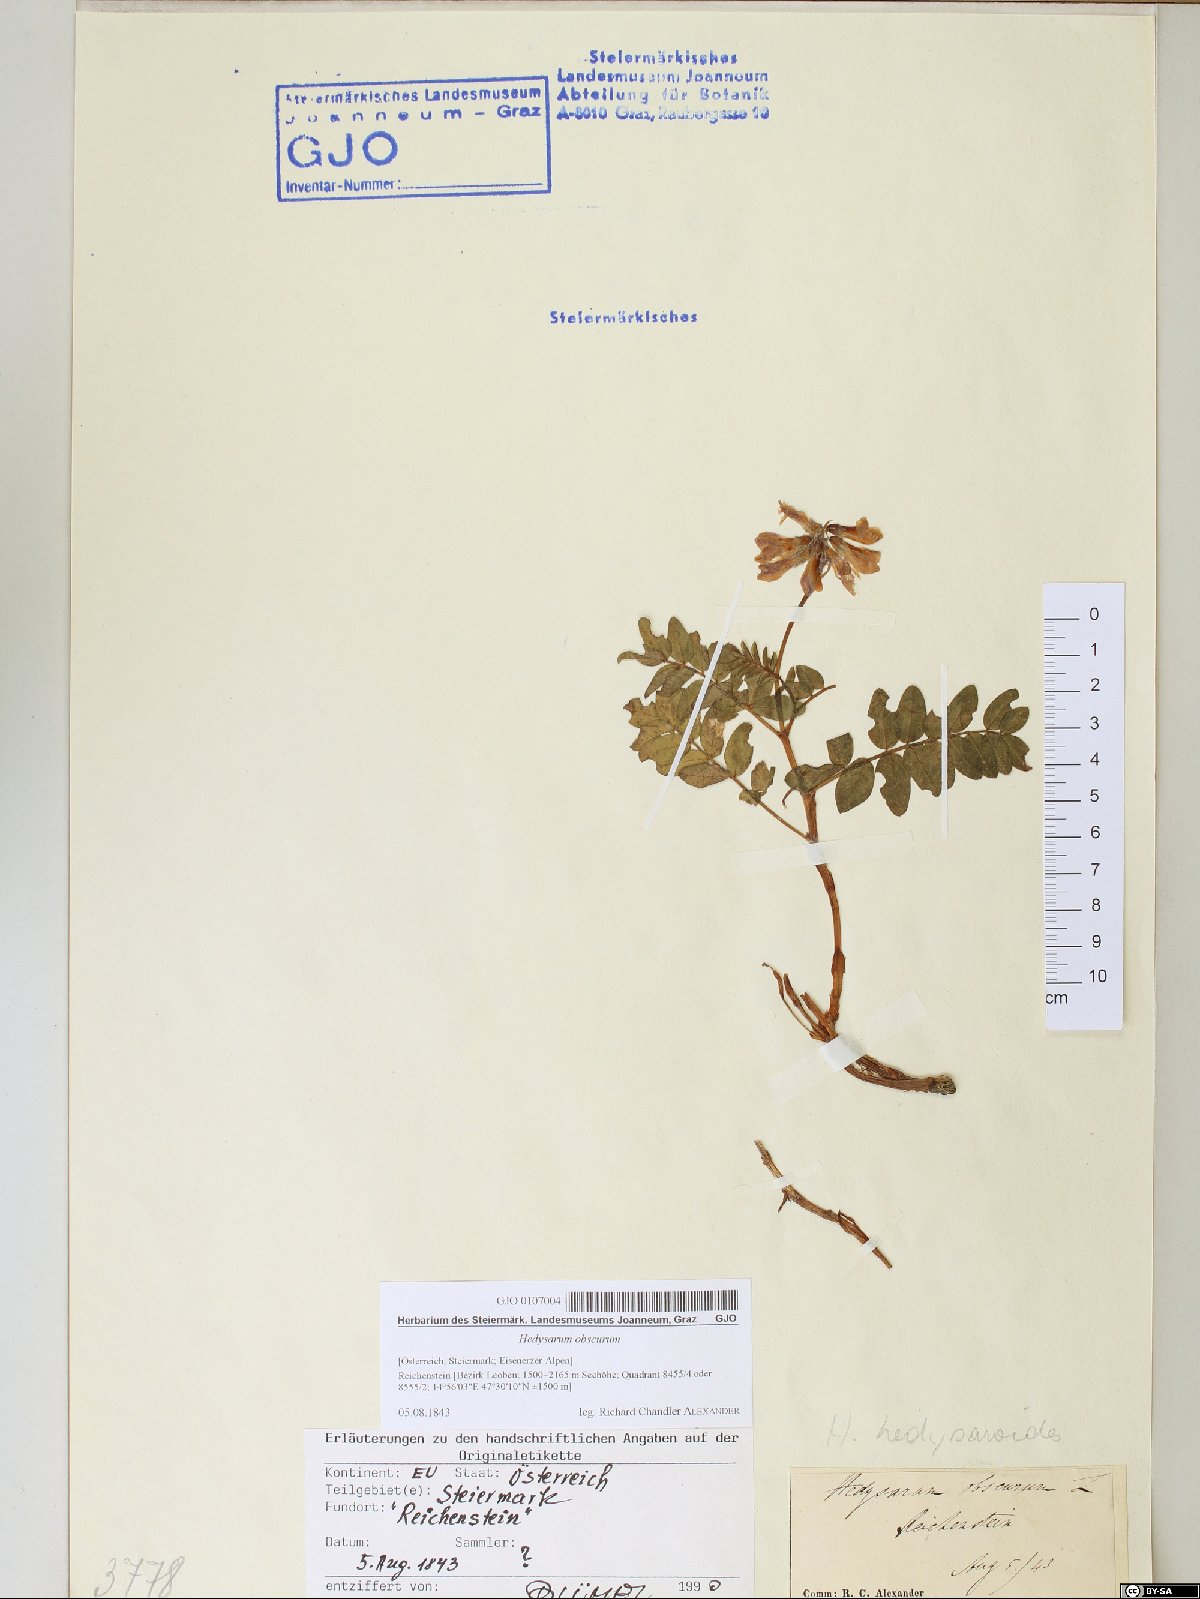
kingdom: Plantae
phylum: Tracheophyta
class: Magnoliopsida
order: Fabales
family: Fabaceae
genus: Hedysarum
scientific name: Hedysarum hedysaroides
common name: Alpine french-honeysuckle
